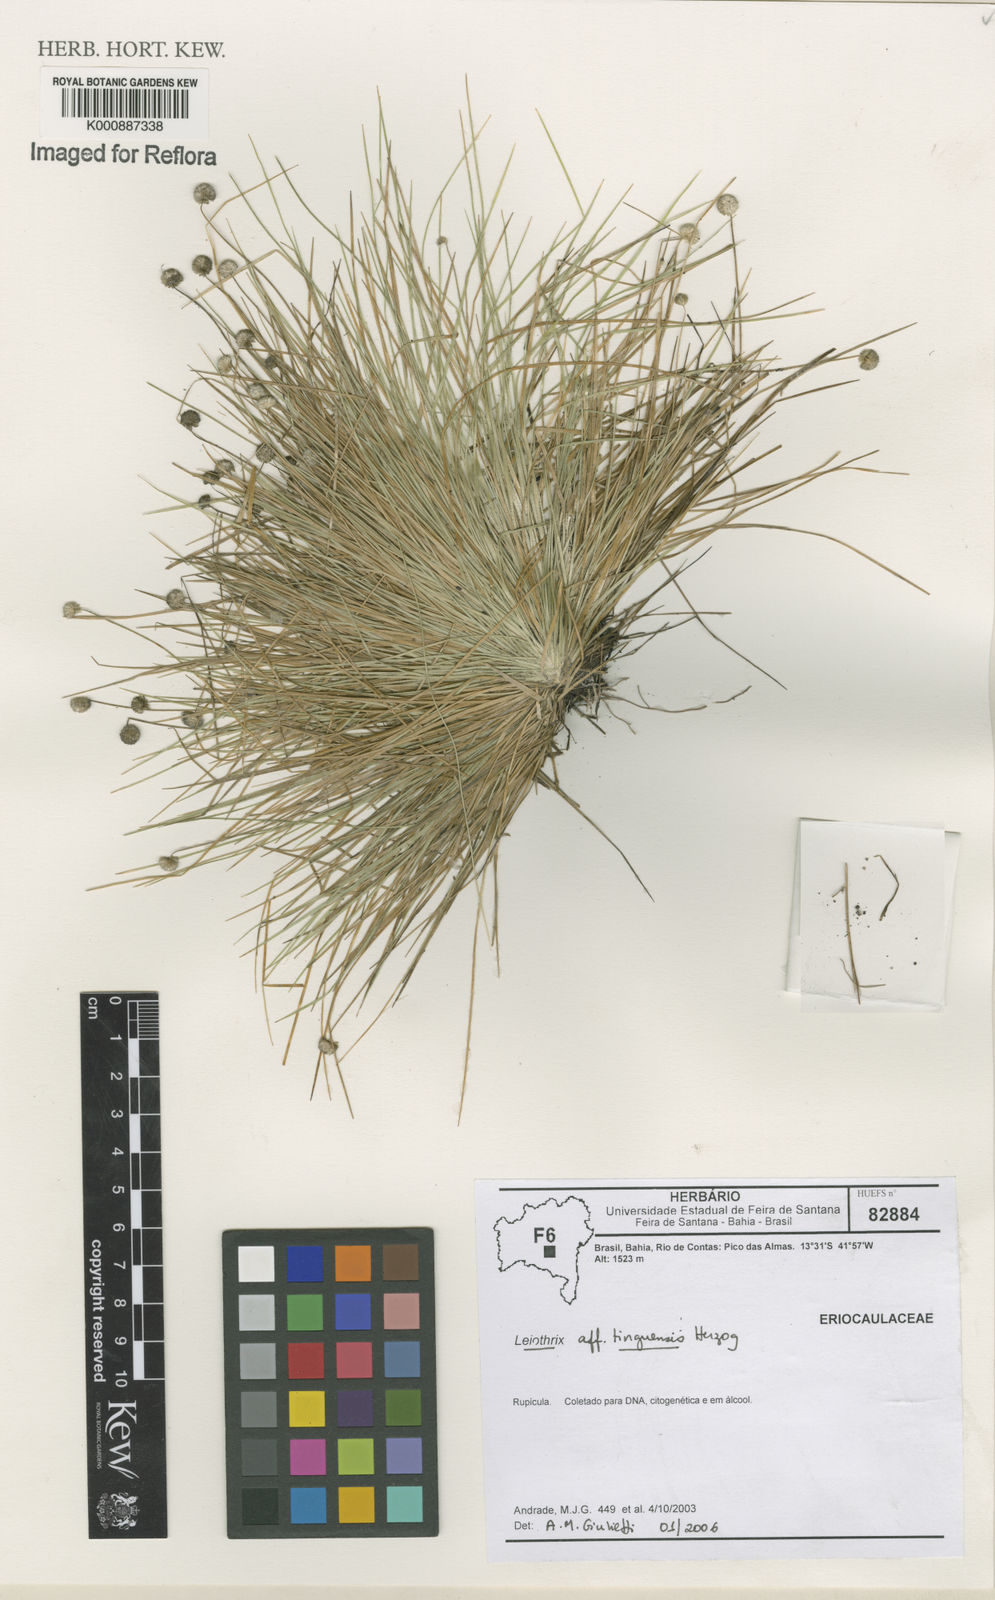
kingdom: Plantae
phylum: Tracheophyta
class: Liliopsida
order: Poales
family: Eriocaulaceae
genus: Leiothrix
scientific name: Leiothrix schlechtendalii
